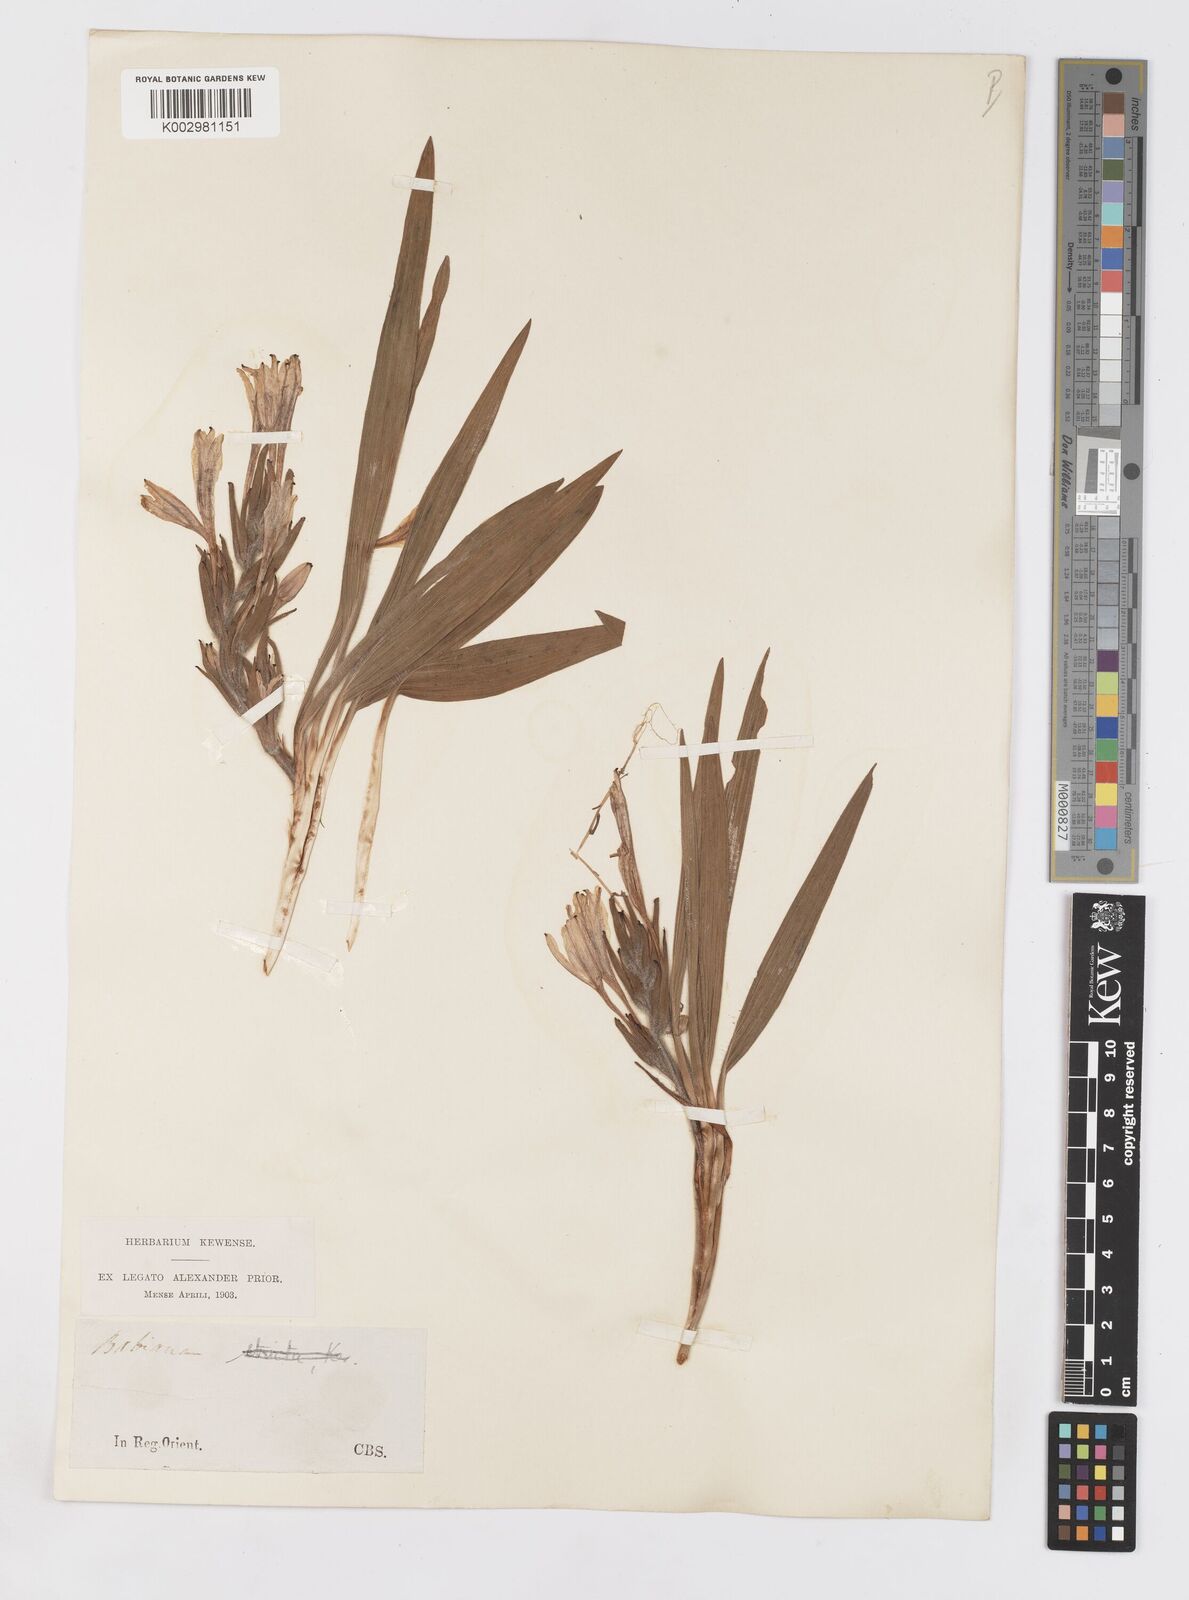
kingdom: Plantae
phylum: Tracheophyta
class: Liliopsida
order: Asparagales
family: Iridaceae
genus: Babiana
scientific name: Babiana fragrans
